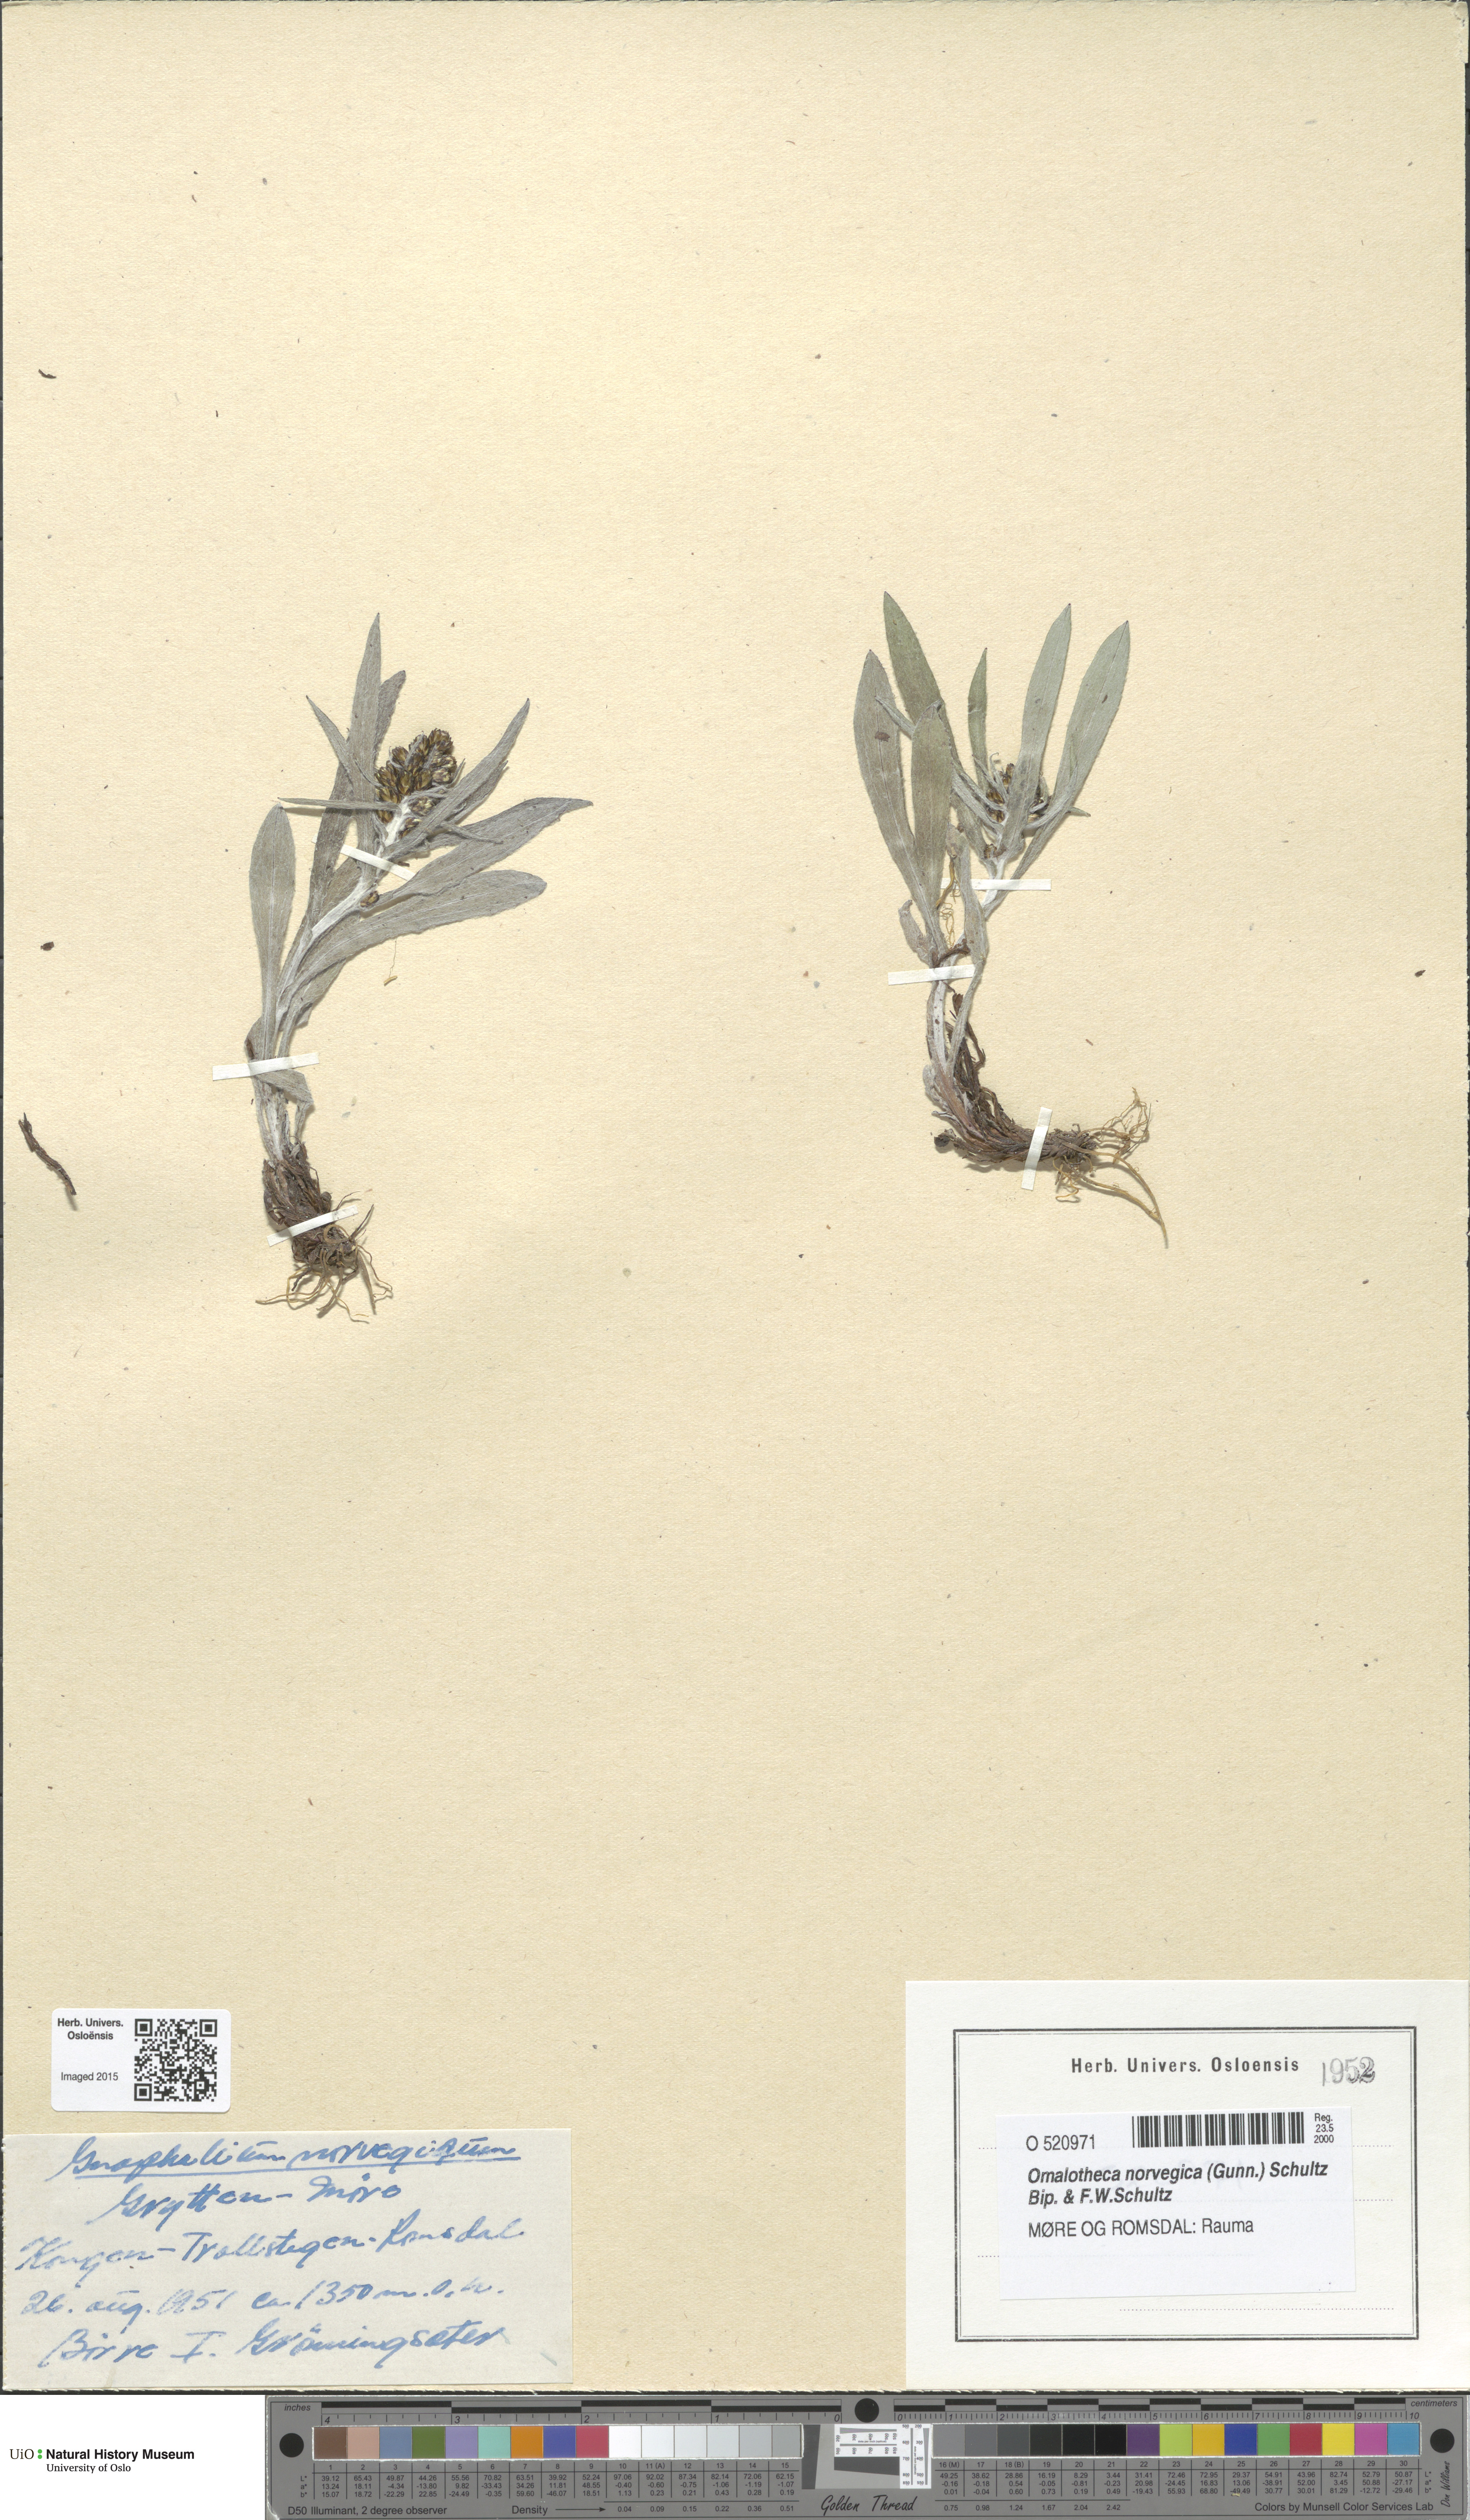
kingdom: Plantae
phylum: Tracheophyta
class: Magnoliopsida
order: Asterales
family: Asteraceae
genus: Omalotheca
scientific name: Omalotheca norvegica
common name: Norwegian arctic-cudweed
